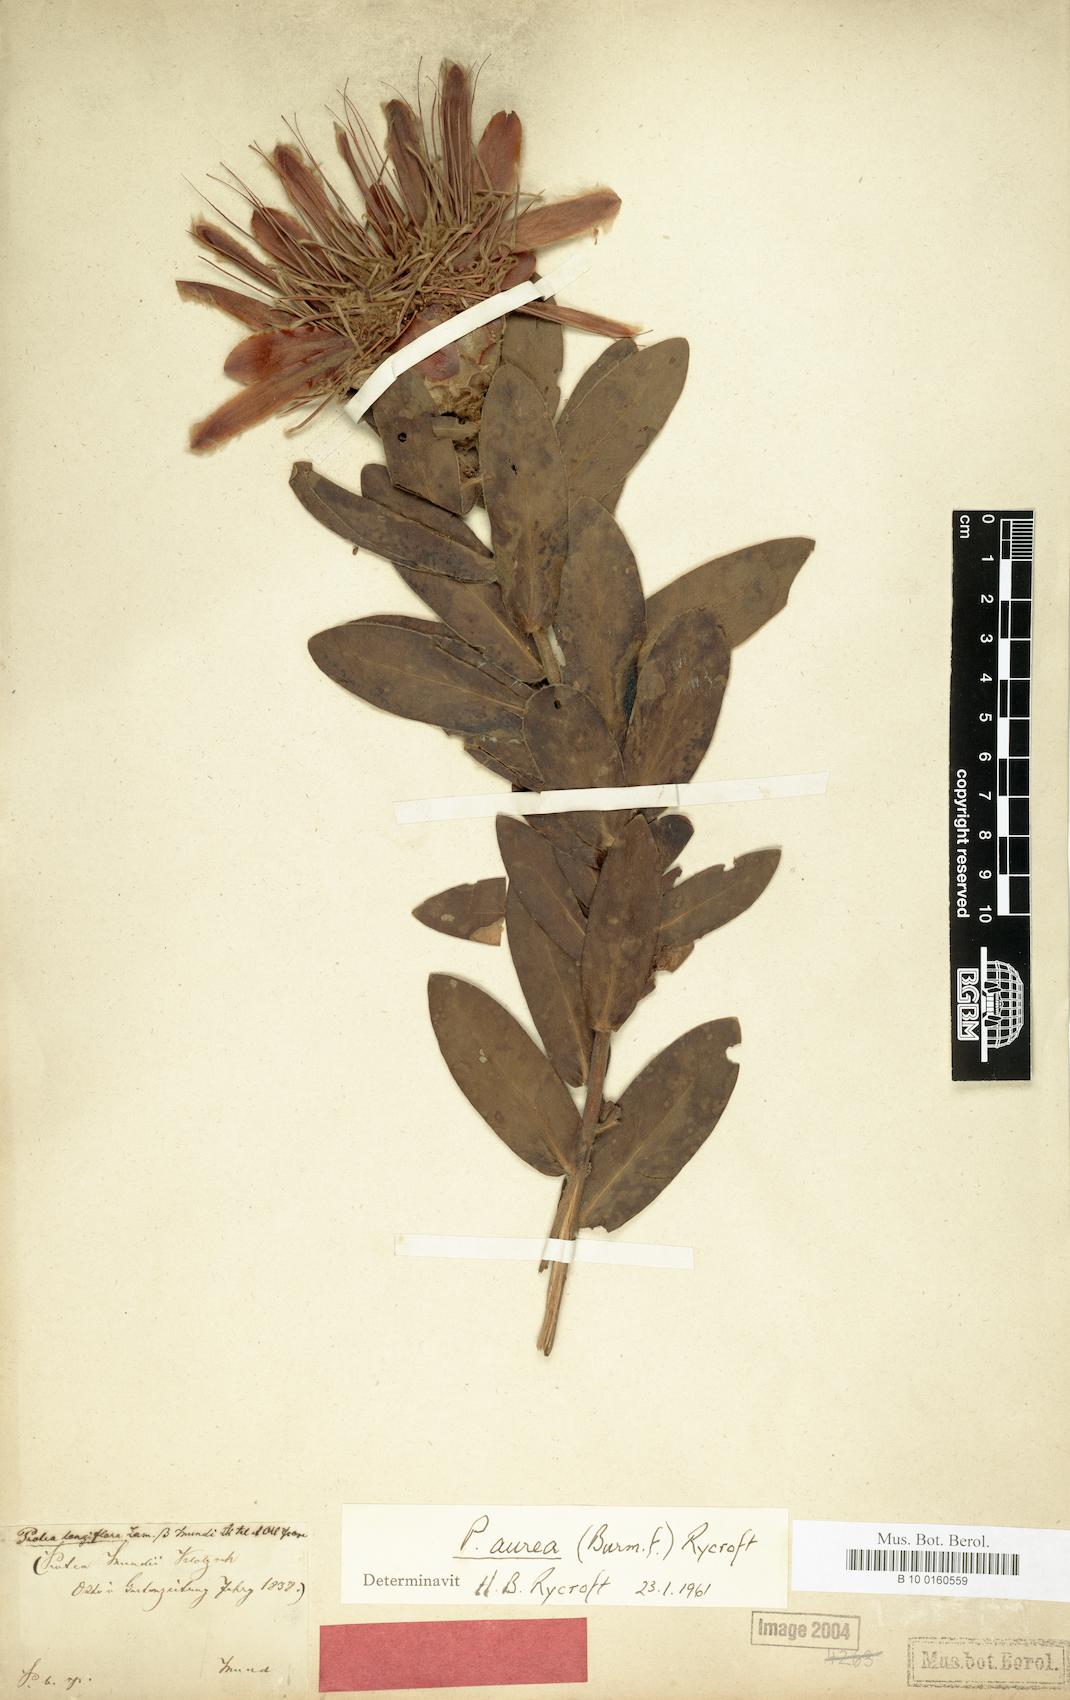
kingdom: Plantae
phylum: Tracheophyta
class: Magnoliopsida
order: Proteales
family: Proteaceae
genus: Protea
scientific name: Protea aurea
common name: Shuttlecock sugarbush
